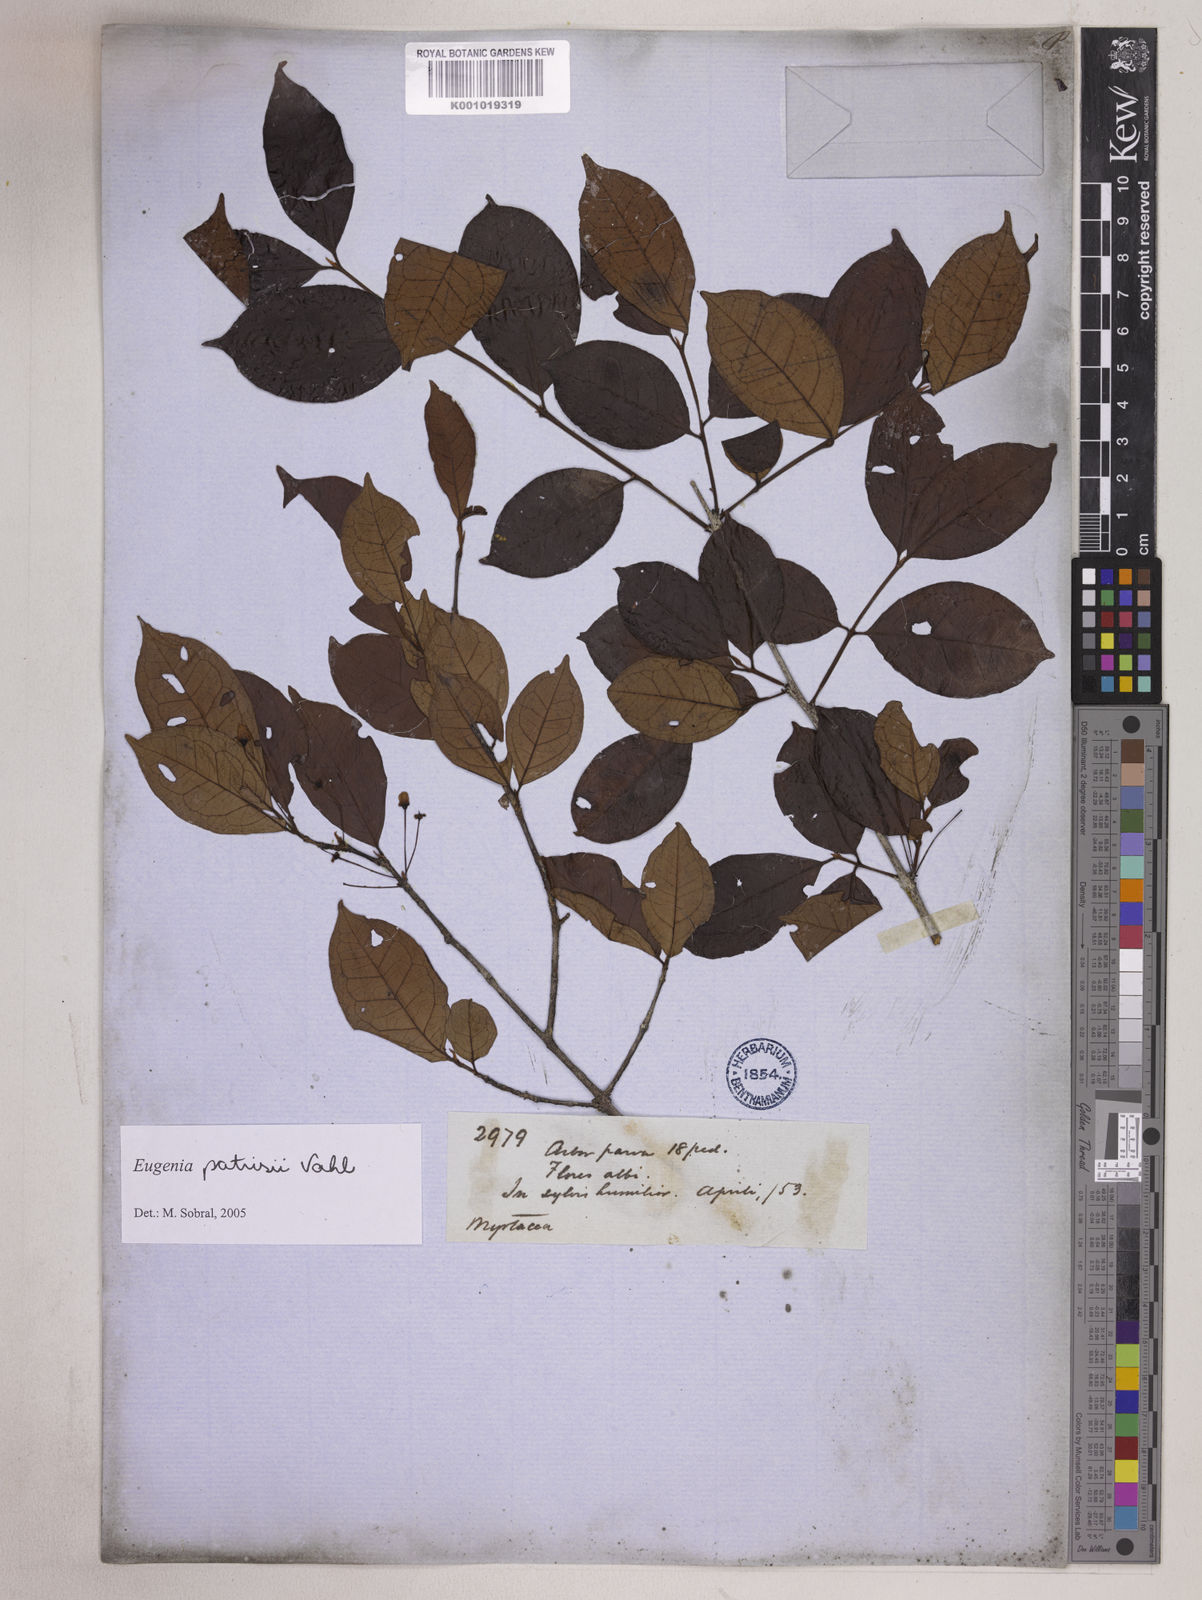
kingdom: Plantae
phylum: Tracheophyta
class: Magnoliopsida
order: Myrtales
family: Myrtaceae
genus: Eugenia
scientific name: Eugenia patrisii
